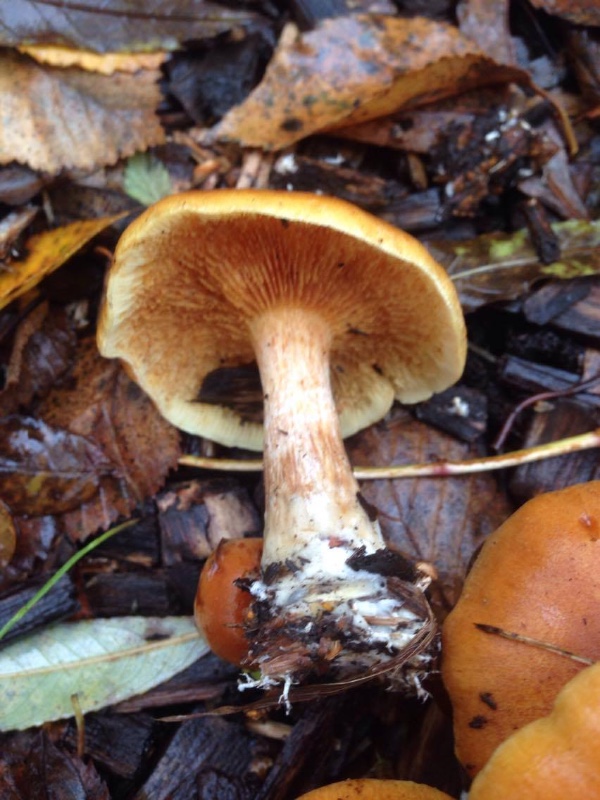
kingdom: Fungi
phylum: Basidiomycota
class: Agaricomycetes
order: Agaricales
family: Hymenogastraceae
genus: Gymnopilus
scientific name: Gymnopilus penetrans
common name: plettet flammehat
